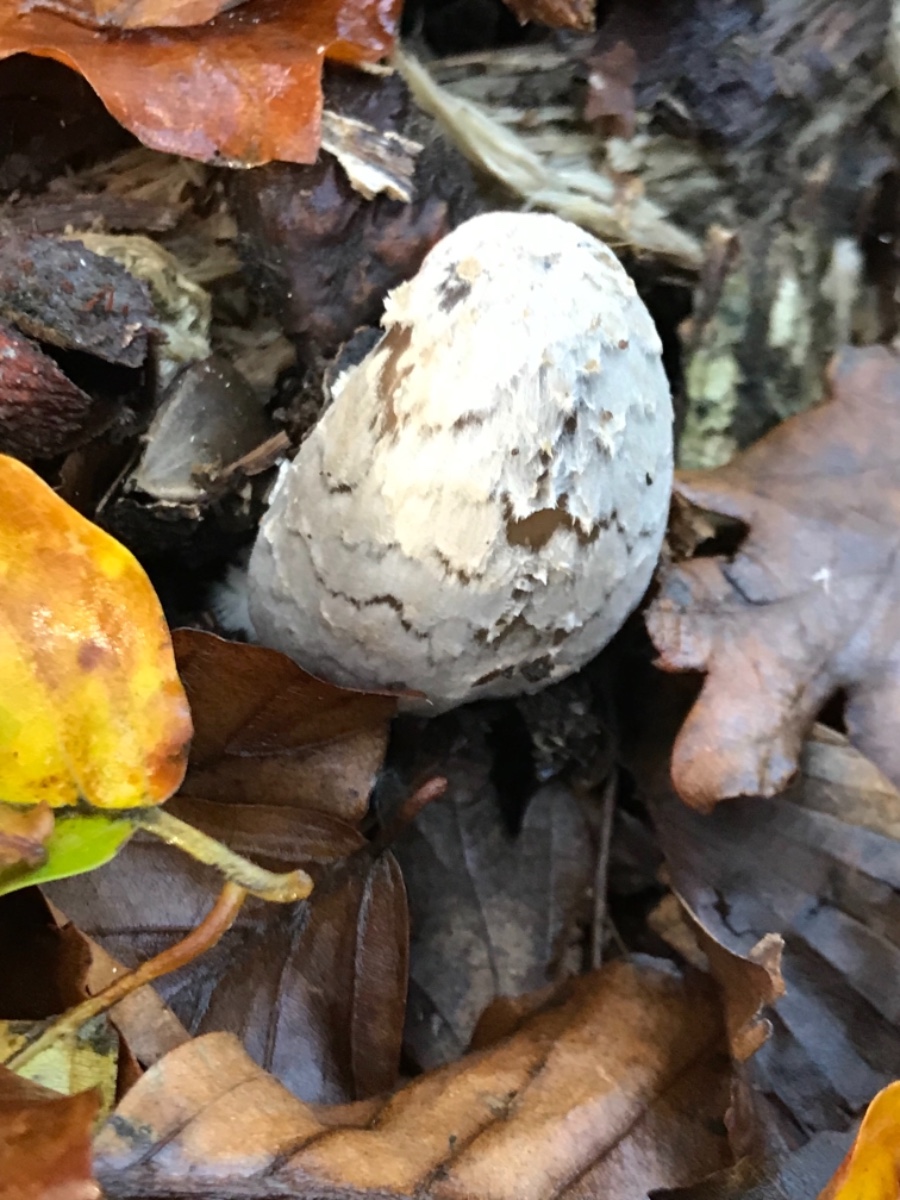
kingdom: Fungi
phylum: Basidiomycota
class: Agaricomycetes
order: Agaricales
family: Psathyrellaceae
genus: Coprinopsis
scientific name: Coprinopsis picacea
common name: skade-blækhat
